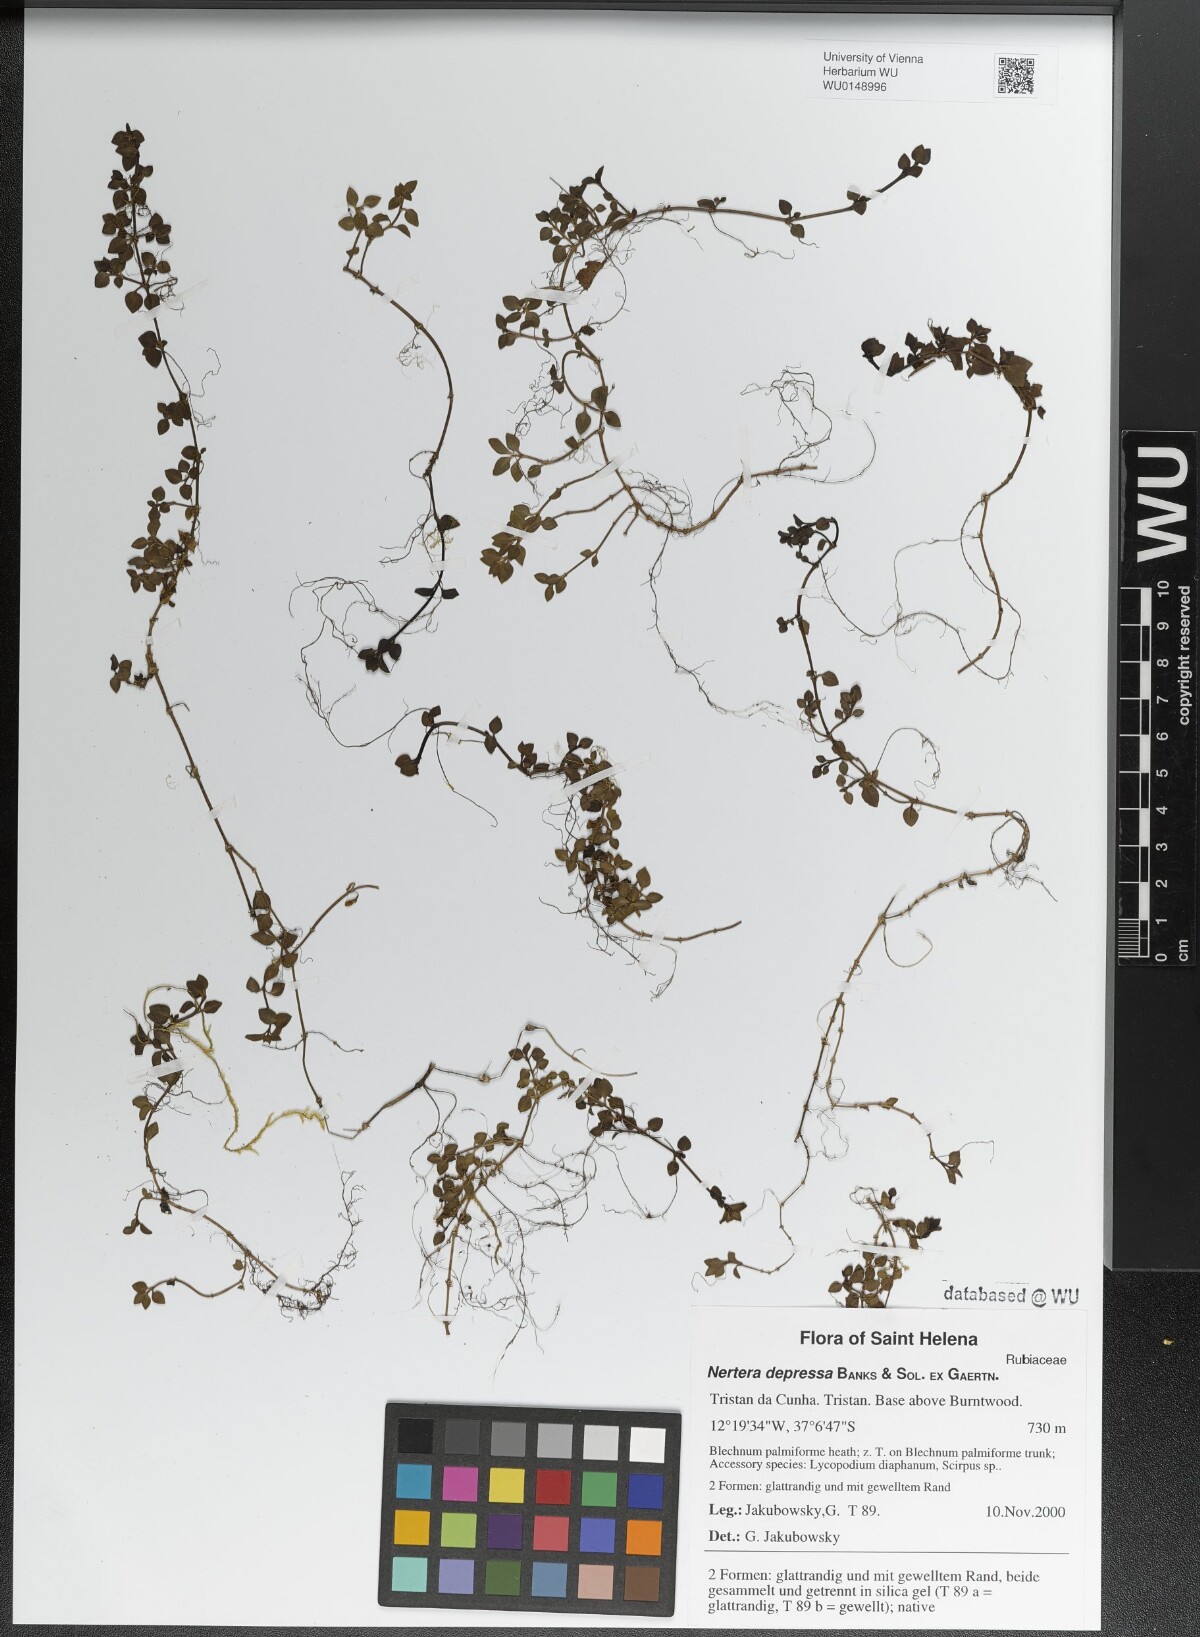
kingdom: Plantae
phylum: Tracheophyta
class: Magnoliopsida
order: Gentianales
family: Rubiaceae
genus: Nertera
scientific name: Nertera granadensis
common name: Beadplant
